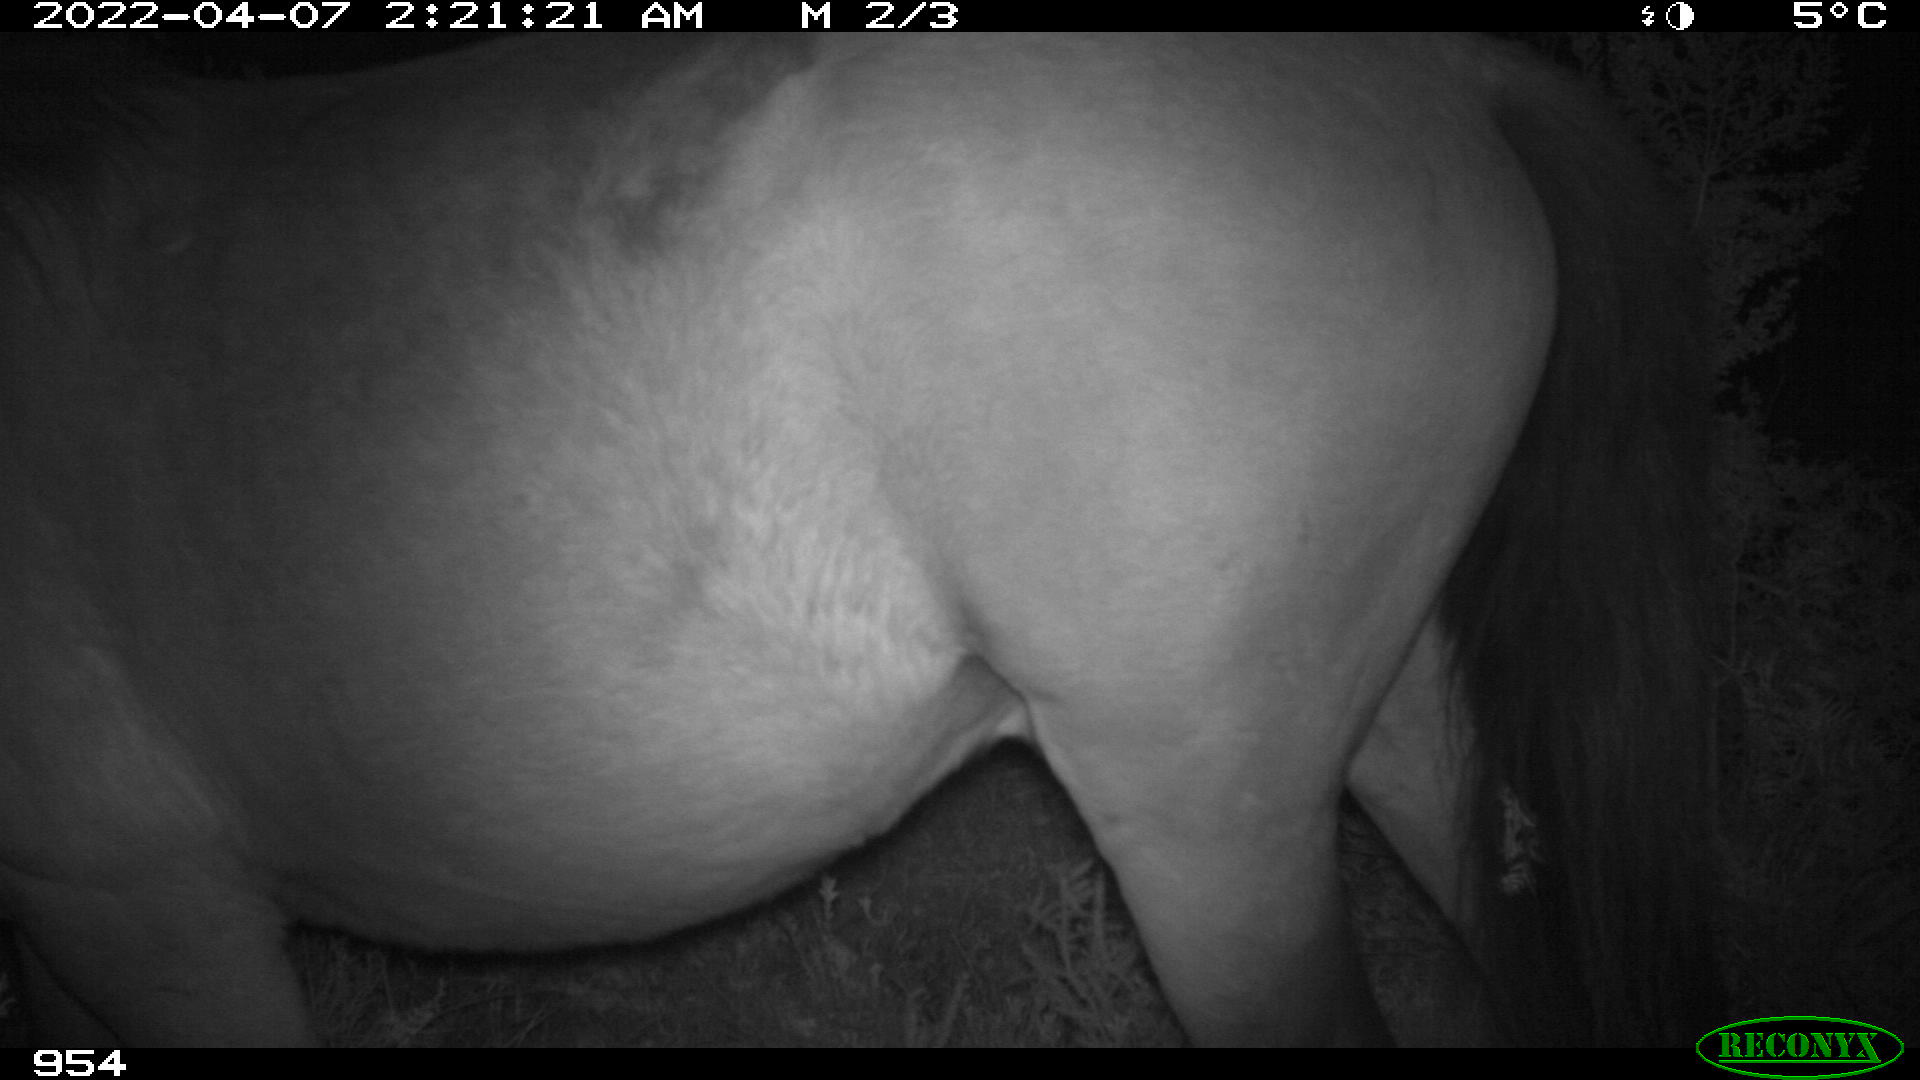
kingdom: Animalia
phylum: Chordata
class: Mammalia
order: Perissodactyla
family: Equidae
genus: Equus
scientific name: Equus caballus
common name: Horse
